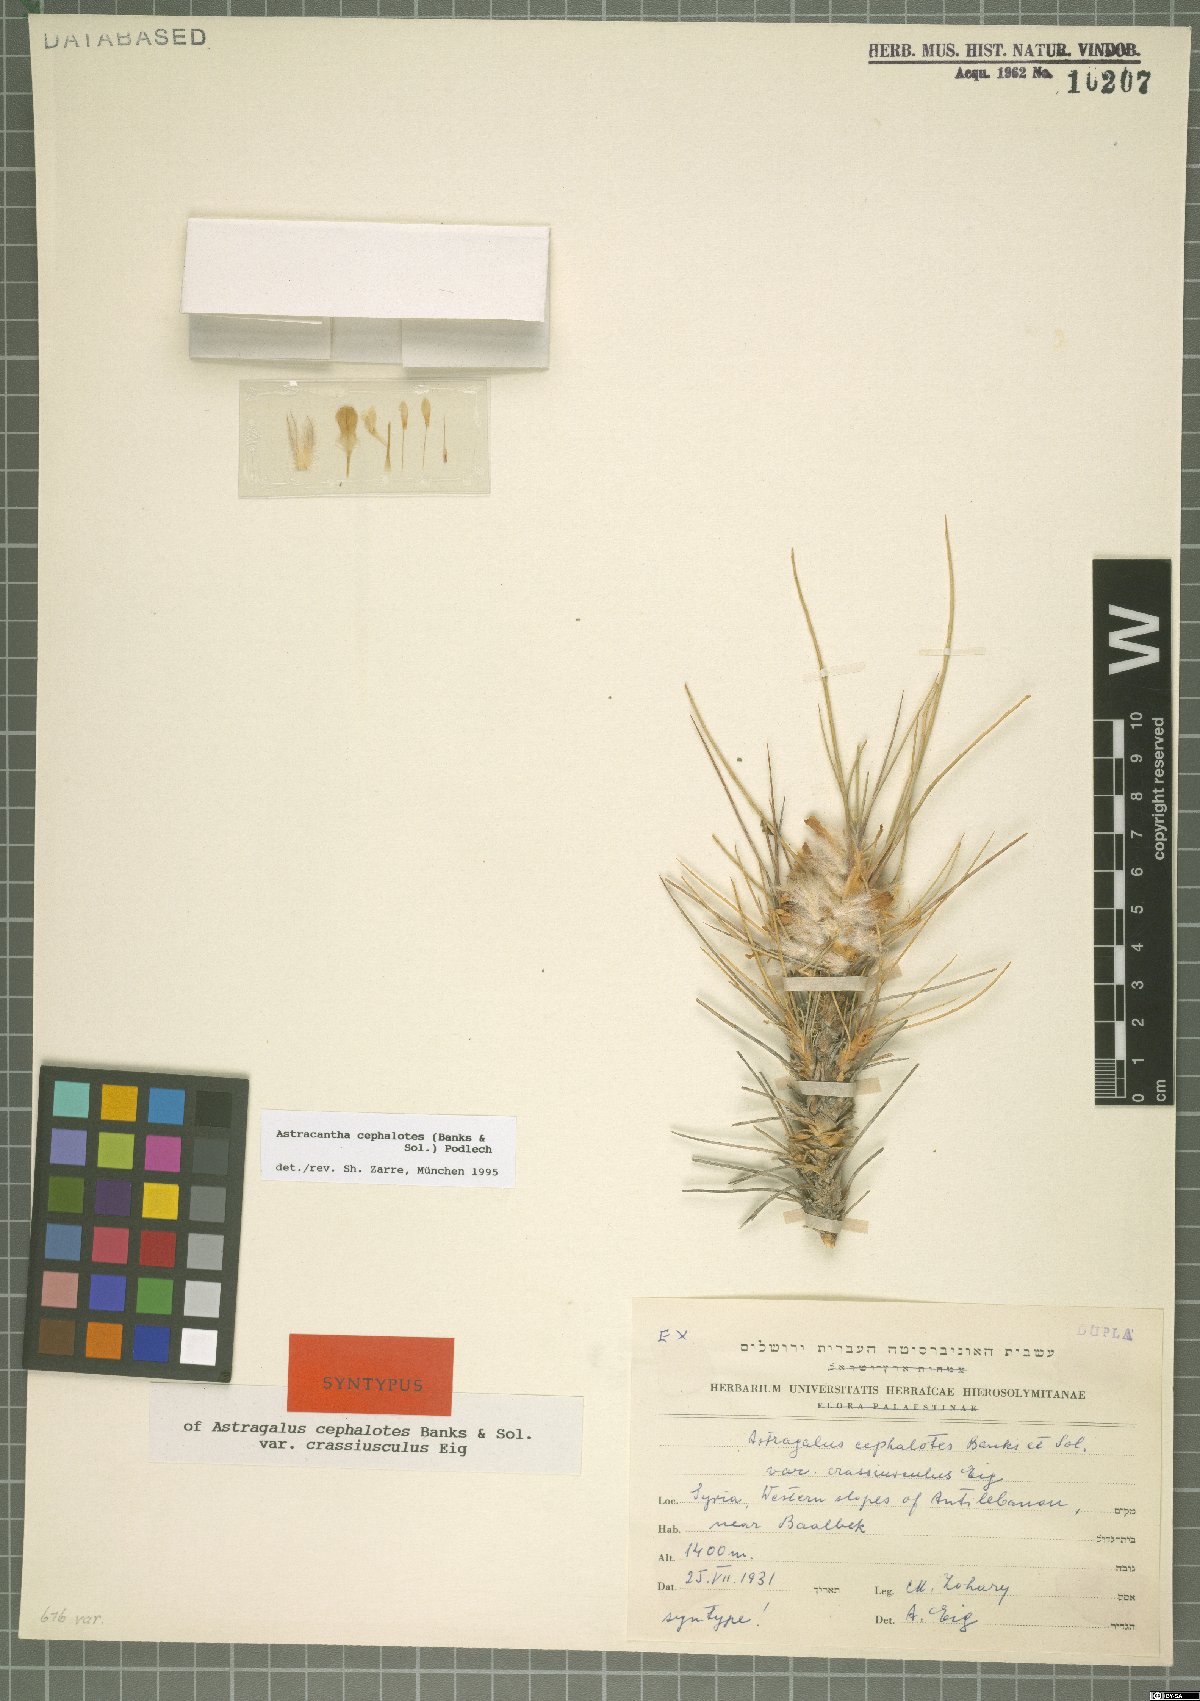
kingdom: Plantae
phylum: Tracheophyta
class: Magnoliopsida
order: Fabales
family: Fabaceae
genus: Astragalus
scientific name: Astragalus cephalotes
